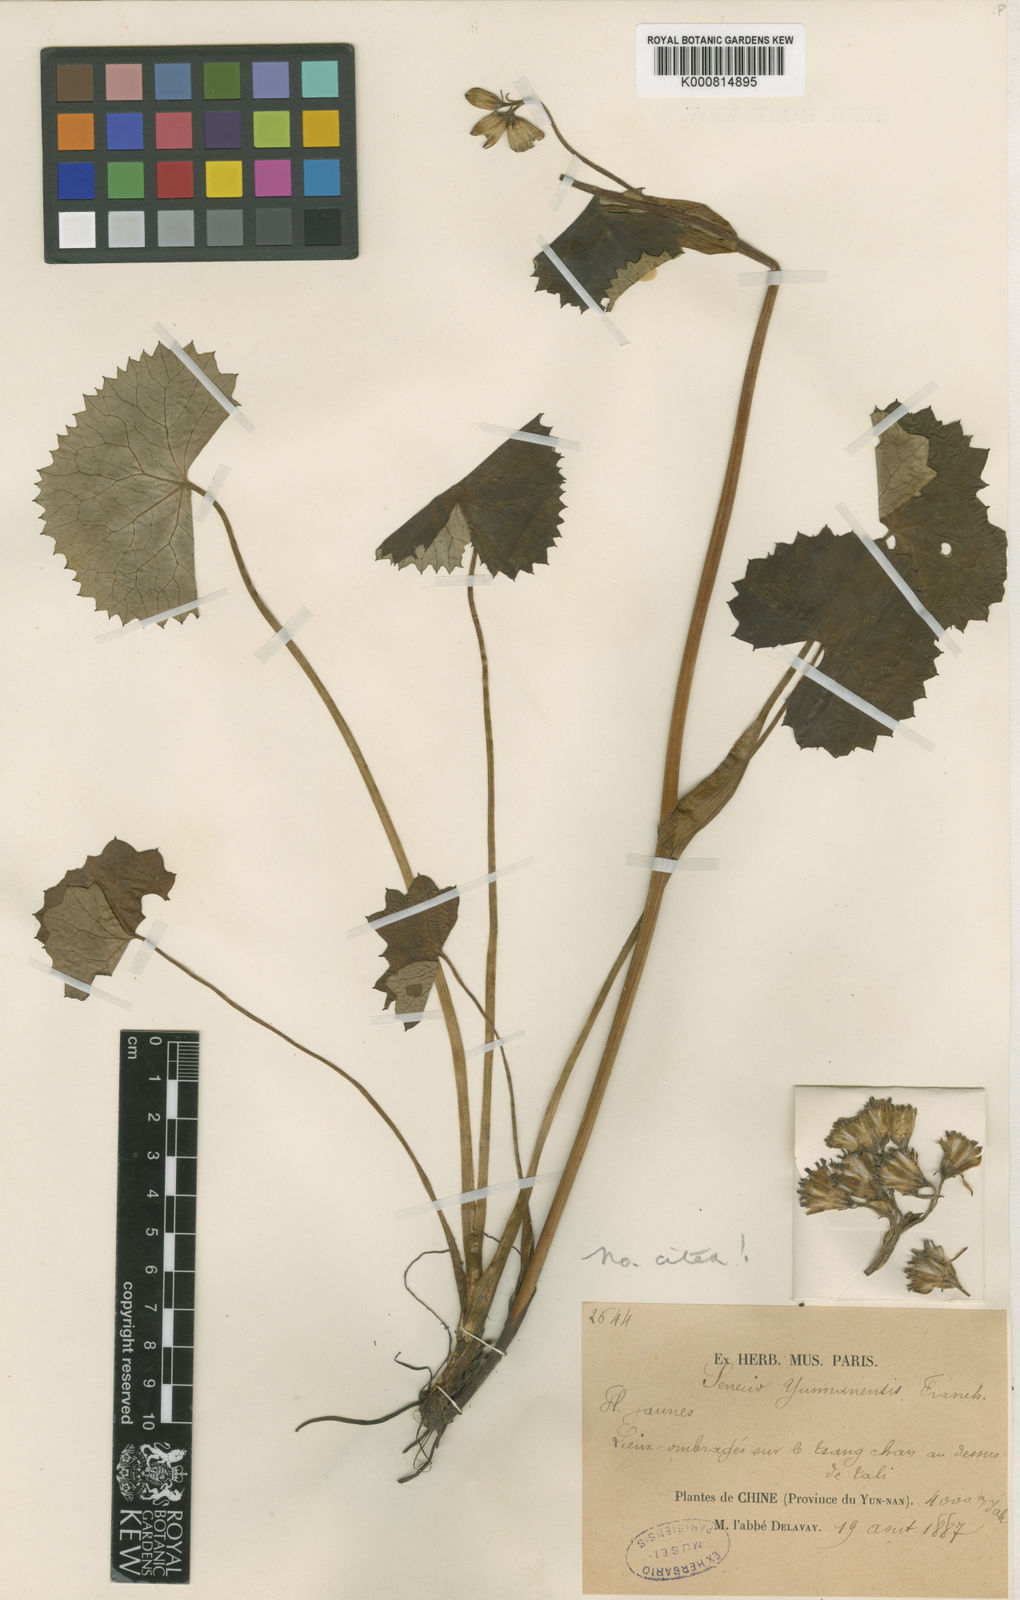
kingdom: Plantae
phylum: Tracheophyta
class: Magnoliopsida
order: Asterales
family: Asteraceae
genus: Ligularia
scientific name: Ligularia yunnanensis
